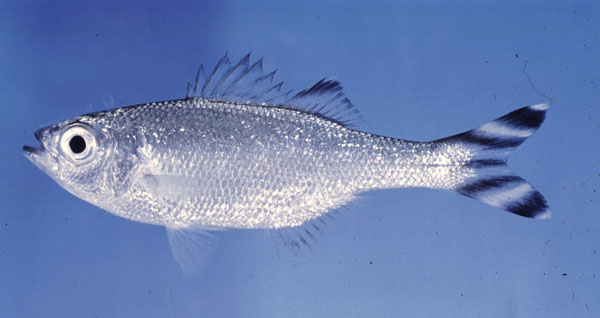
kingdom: Animalia
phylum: Chordata
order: Perciformes
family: Kuhliidae
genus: Kuhlia
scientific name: Kuhlia mugil
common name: Barred flagtail
